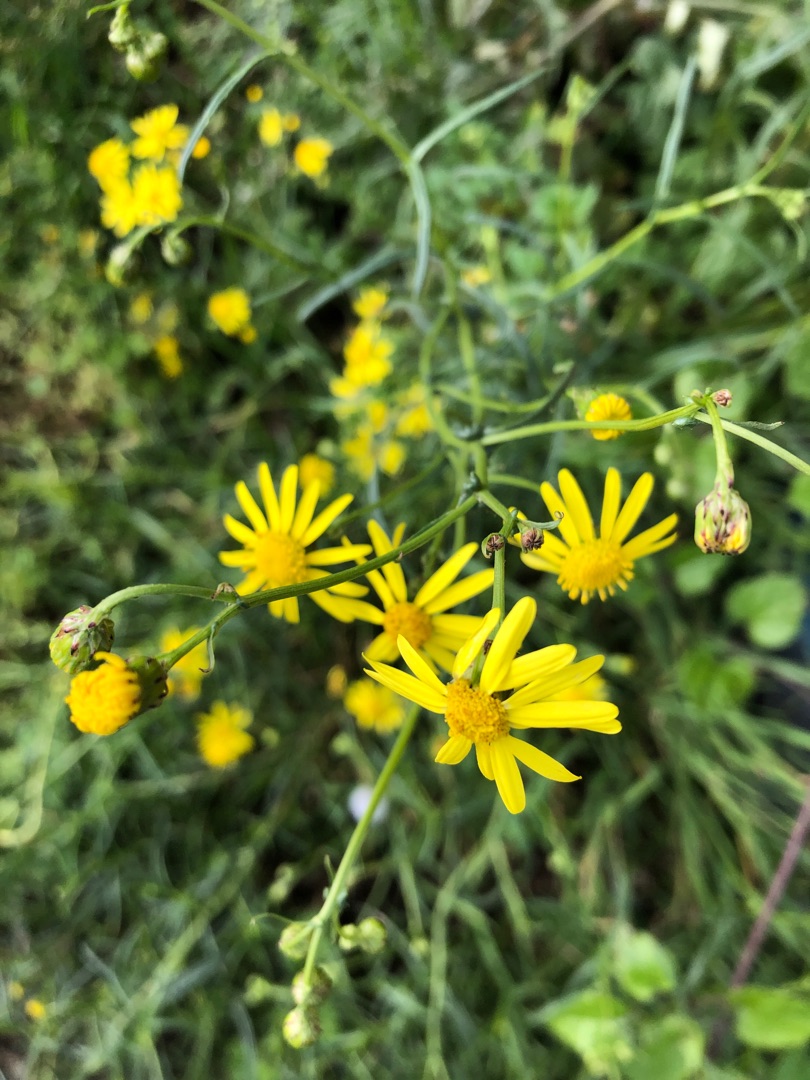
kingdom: Plantae
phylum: Tracheophyta
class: Magnoliopsida
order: Asterales
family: Asteraceae
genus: Senecio
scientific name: Senecio inaequidens
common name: Smalbladet brandbæger
